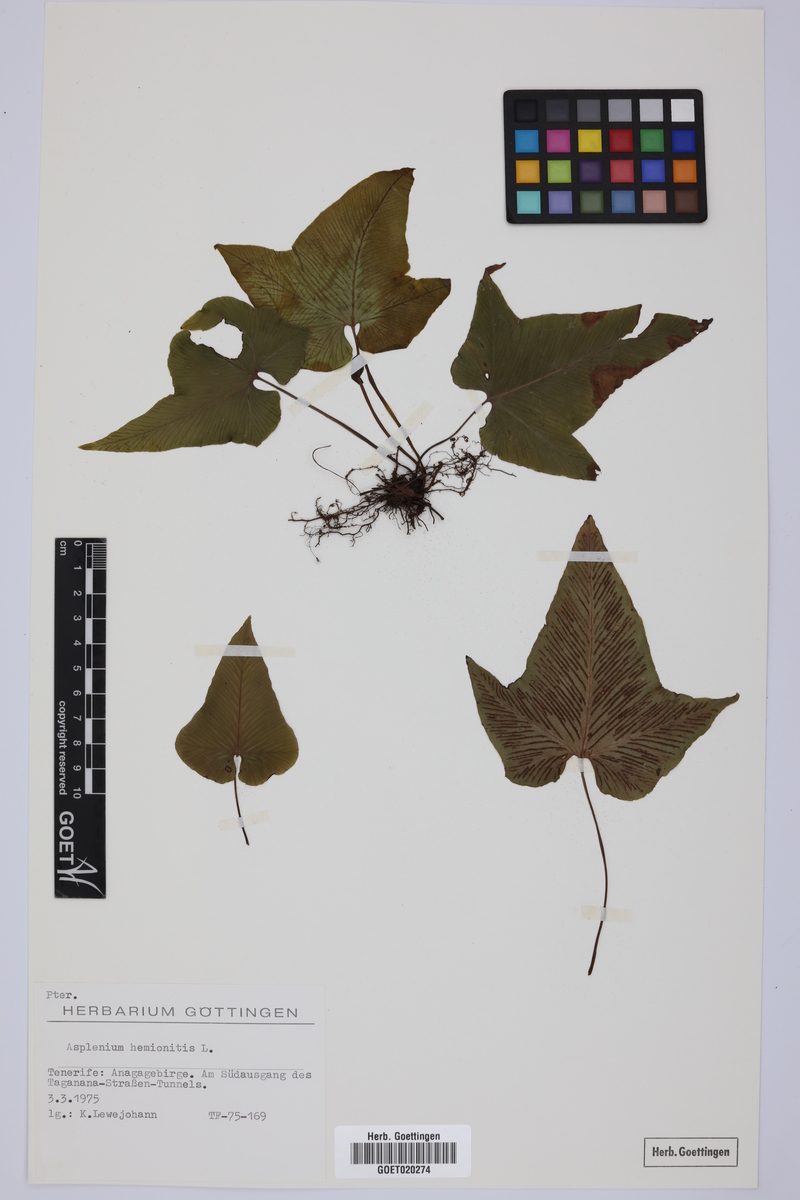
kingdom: Plantae
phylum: Tracheophyta
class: Polypodiopsida
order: Polypodiales
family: Aspleniaceae
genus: Asplenium
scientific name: Asplenium hemionitis
